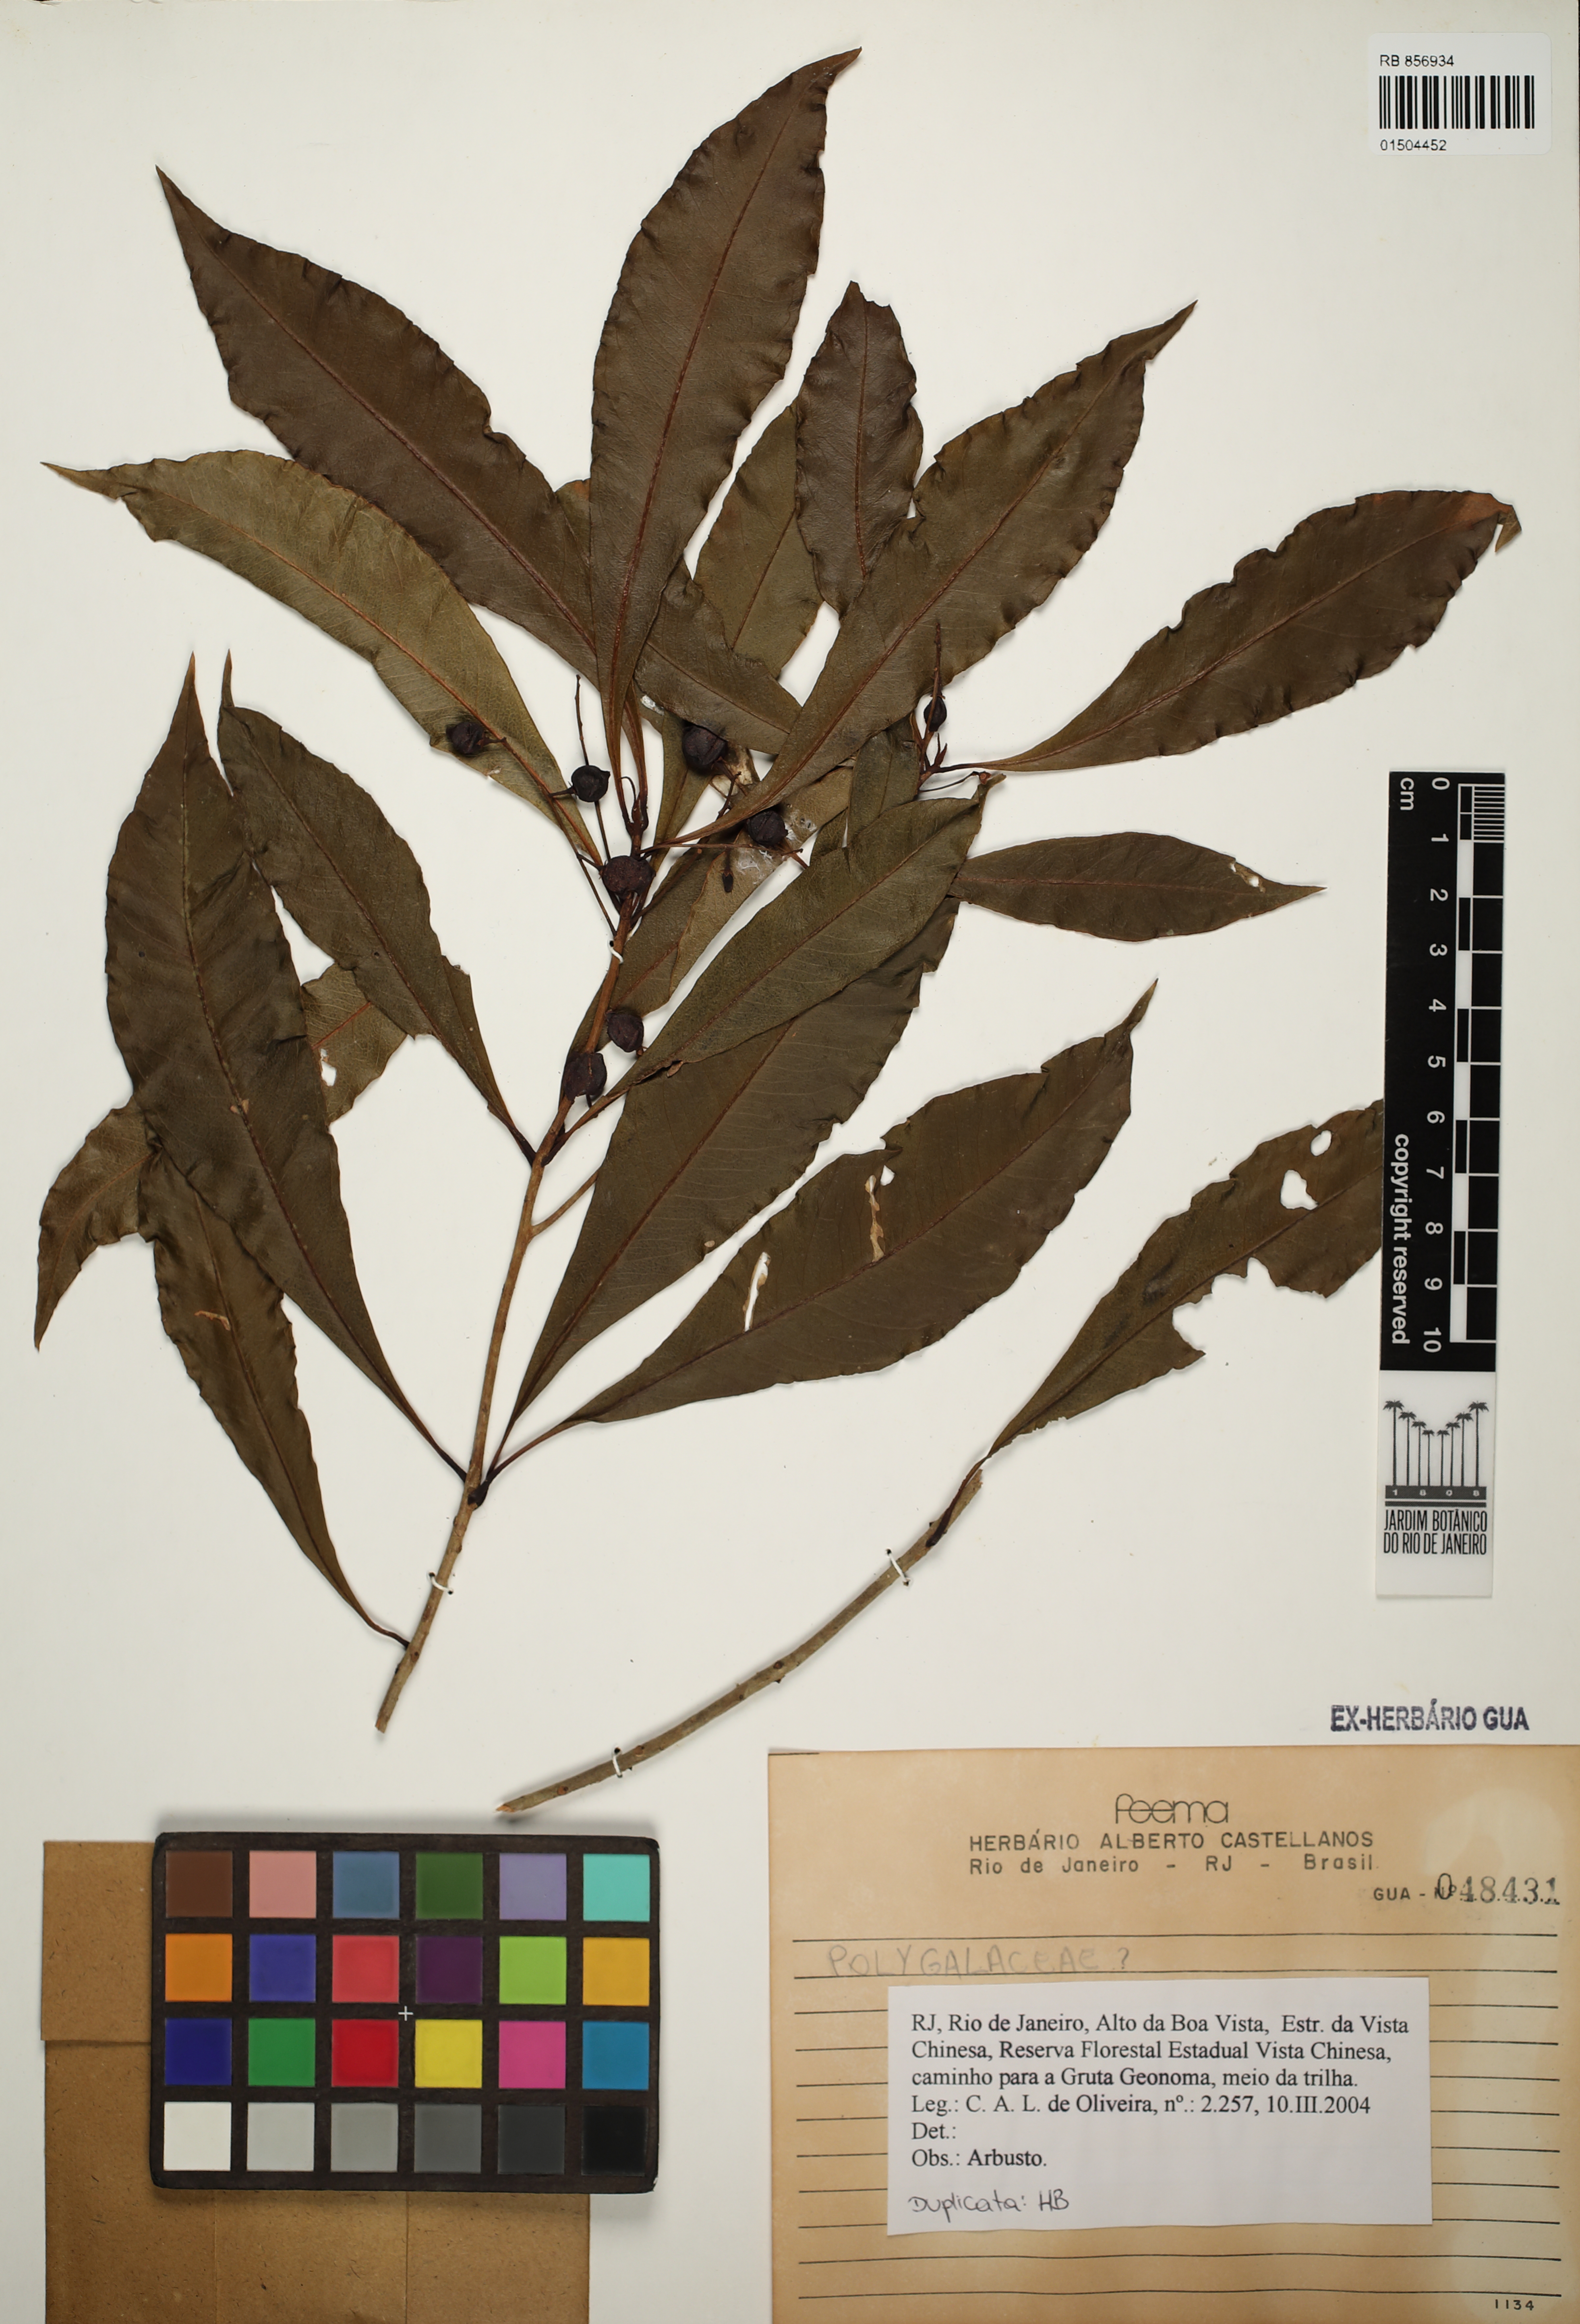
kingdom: Plantae
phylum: Tracheophyta
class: Magnoliopsida
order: Fabales
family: Polygalaceae
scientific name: Polygalaceae
